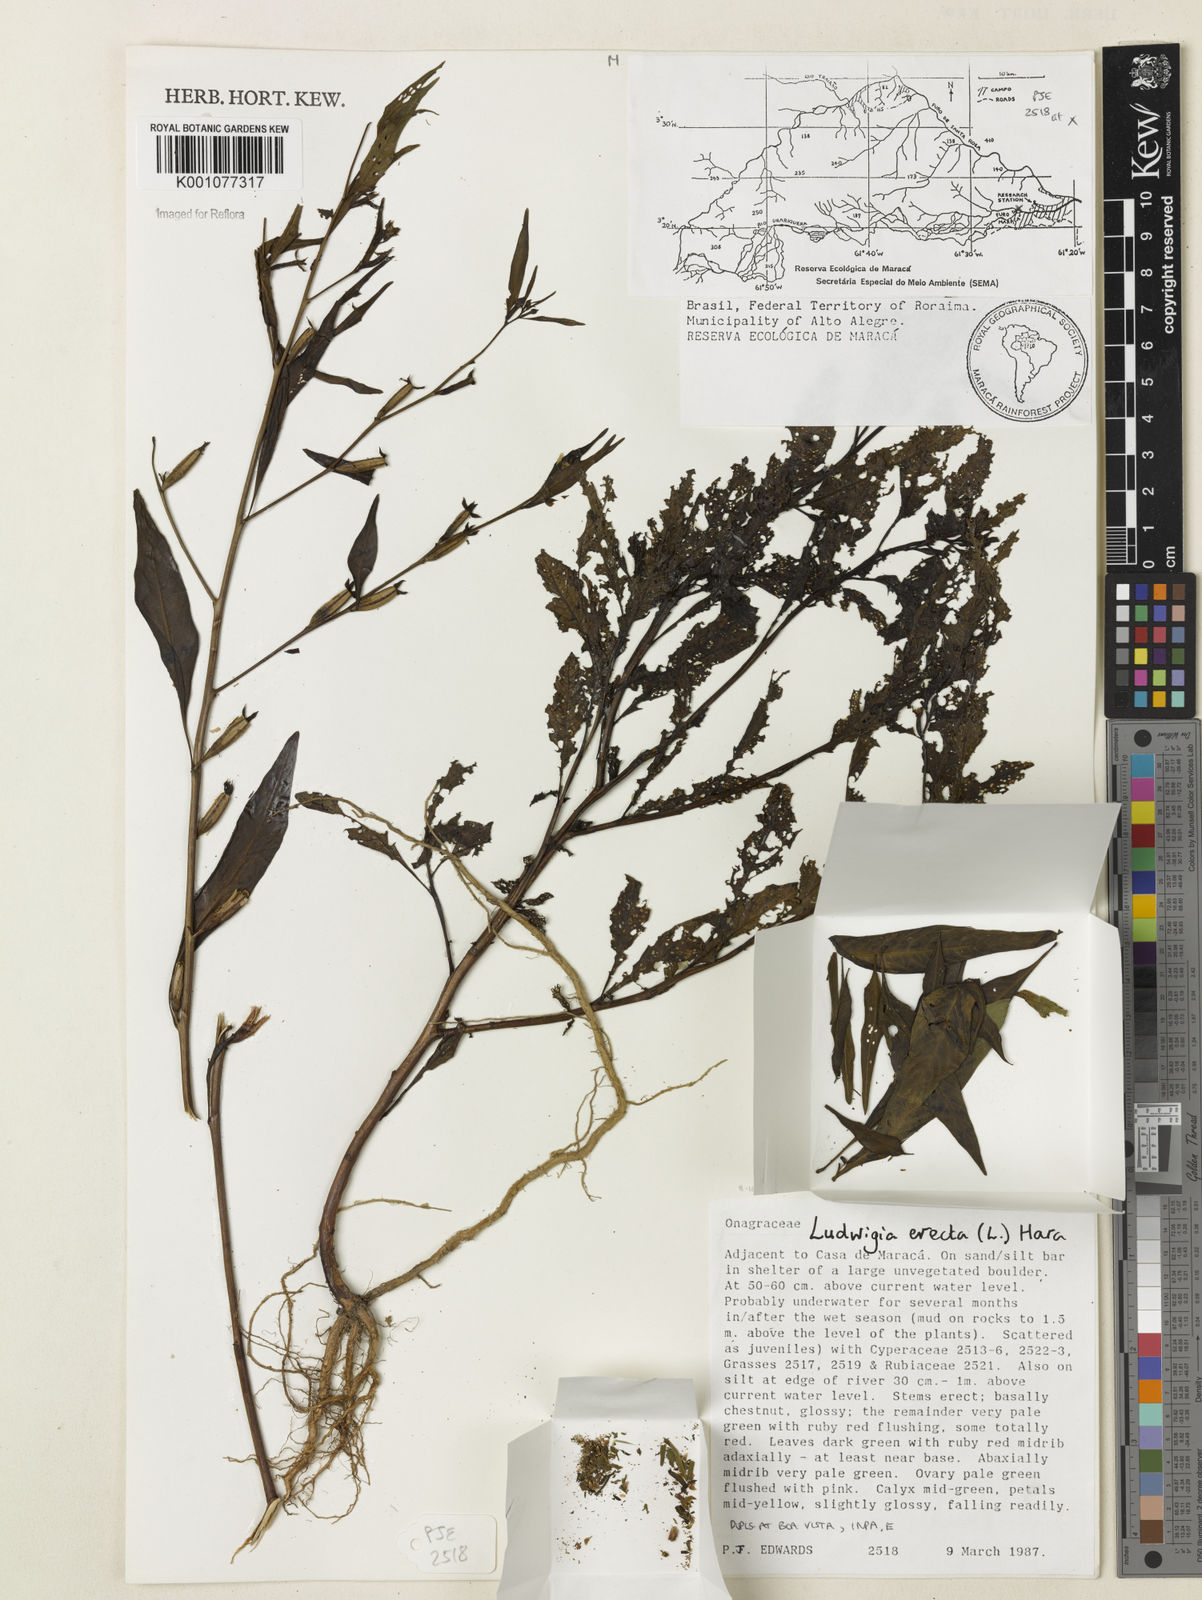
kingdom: Plantae
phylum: Tracheophyta
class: Magnoliopsida
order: Myrtales
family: Onagraceae
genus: Ludwigia
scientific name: Ludwigia erecta
